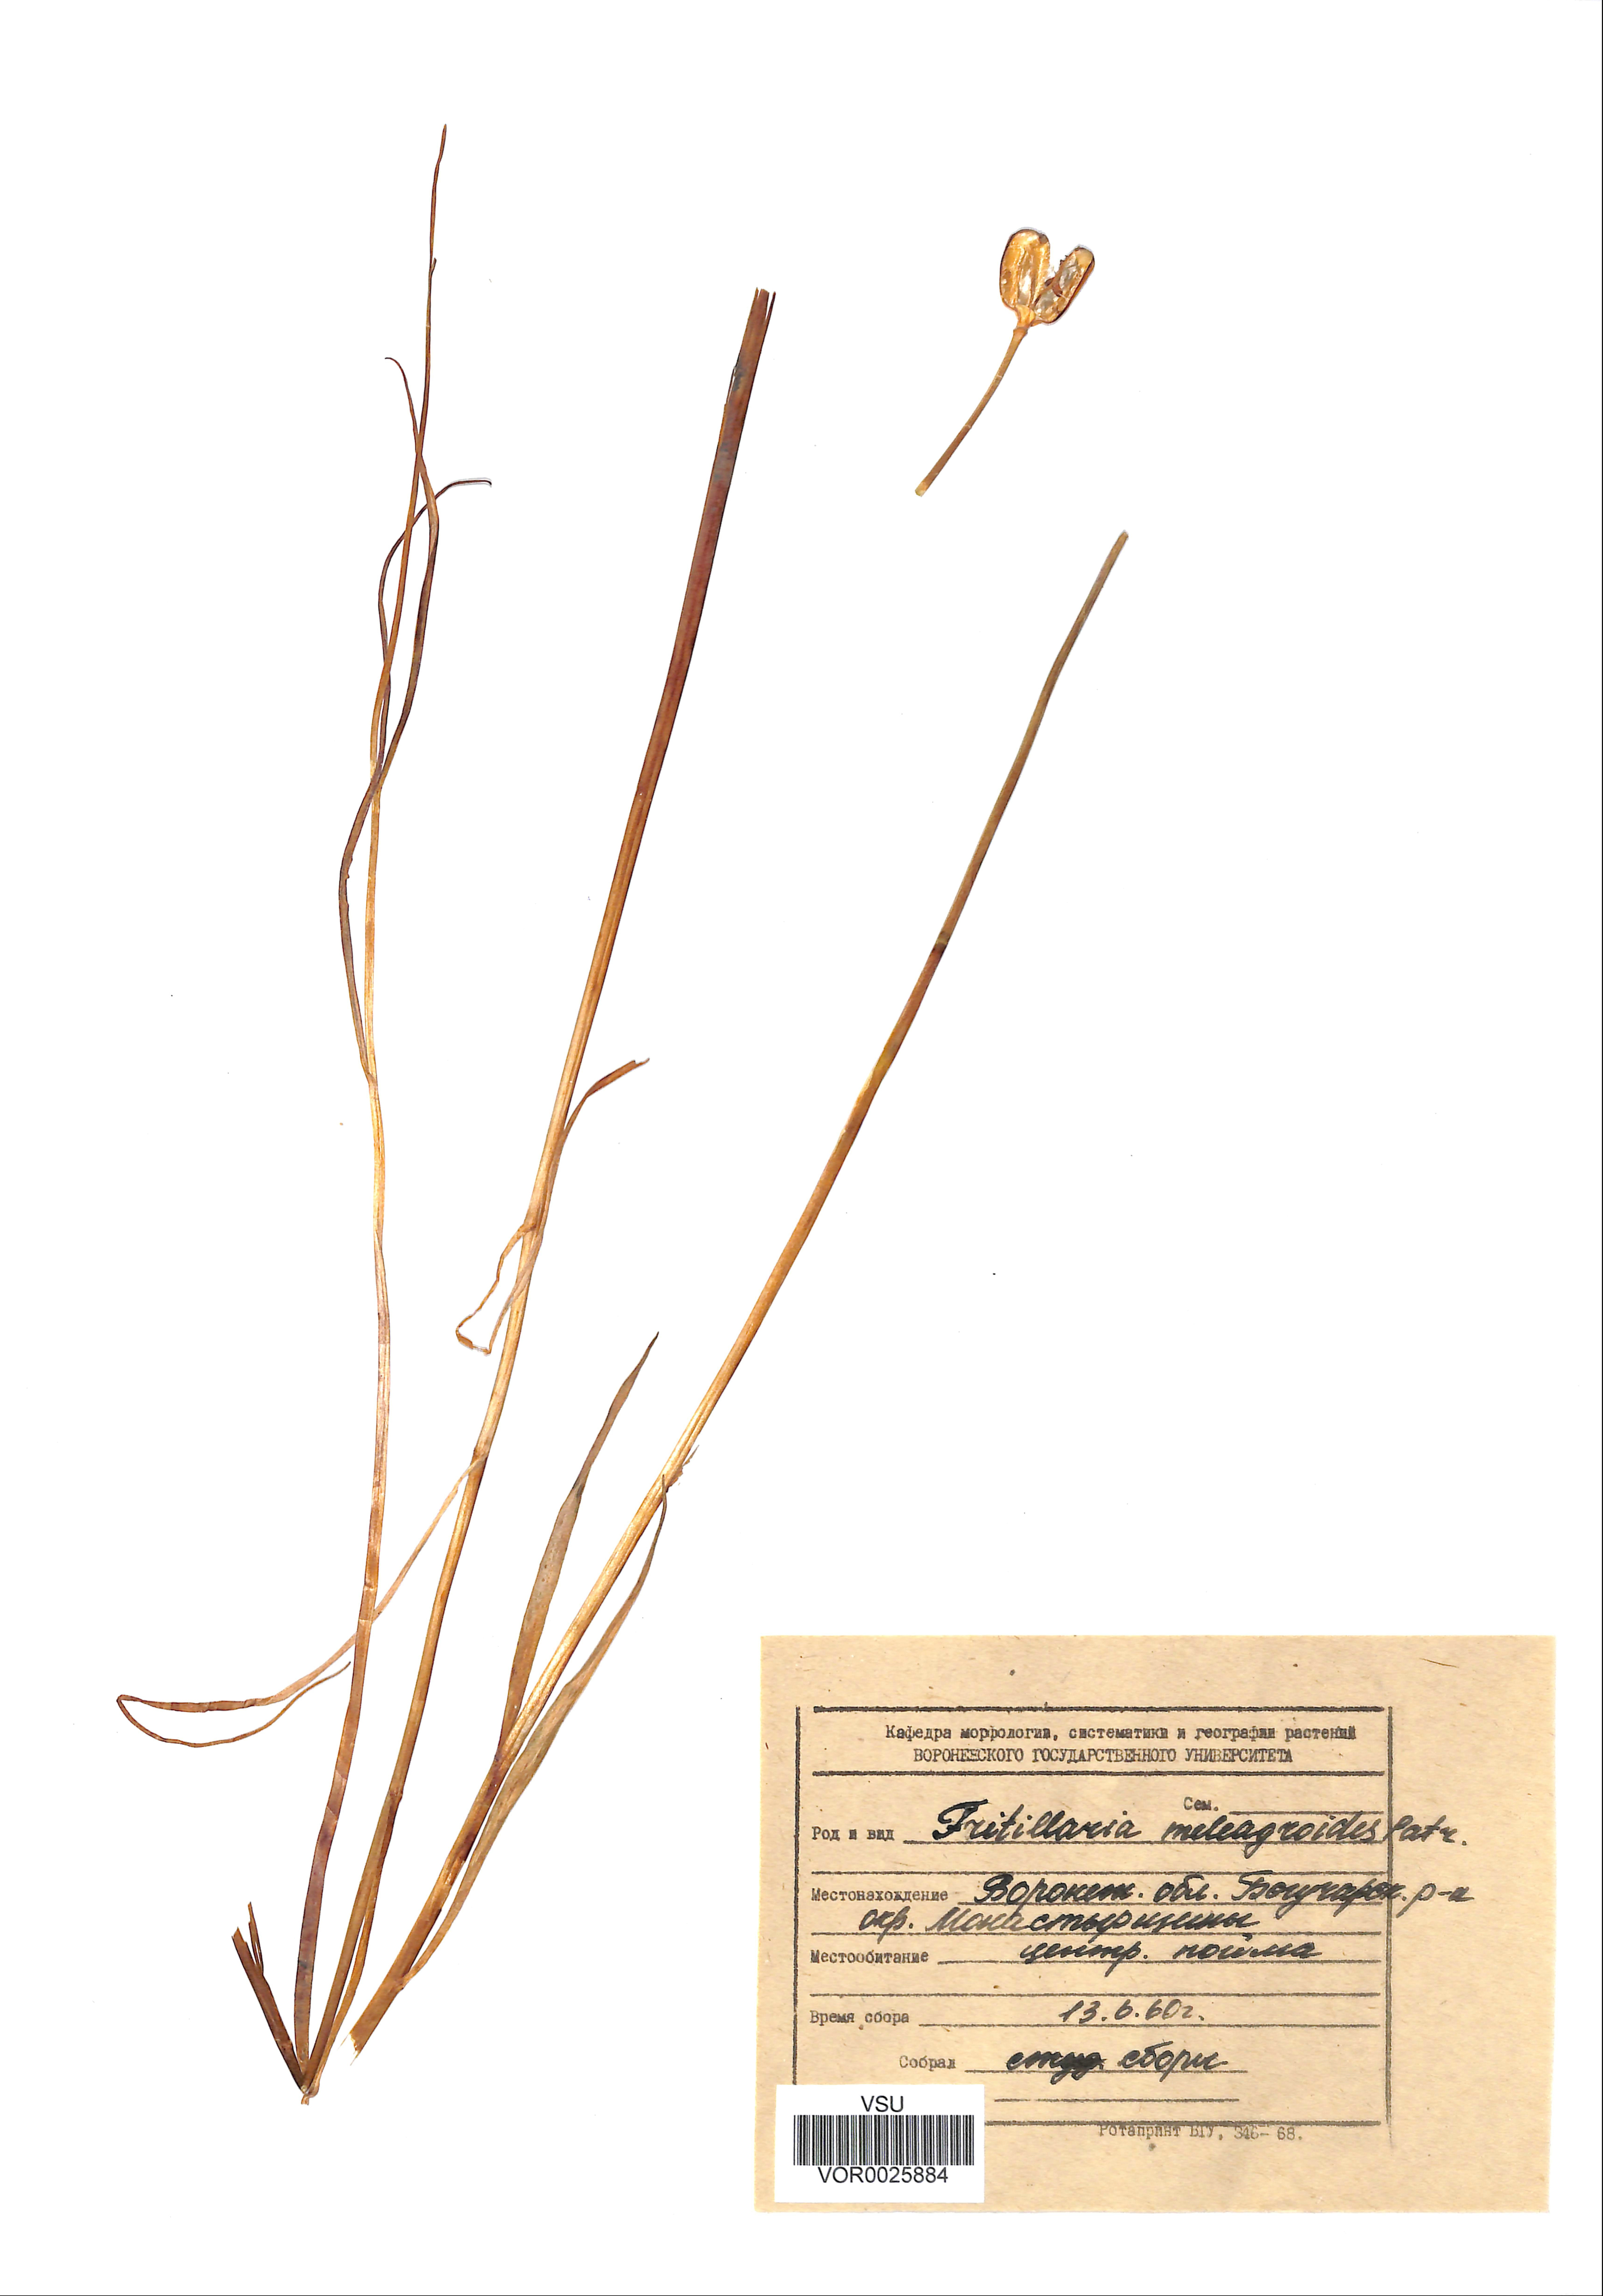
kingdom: Plantae
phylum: Tracheophyta
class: Liliopsida
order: Liliales
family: Liliaceae
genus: Fritillaria
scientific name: Fritillaria meleagroides
